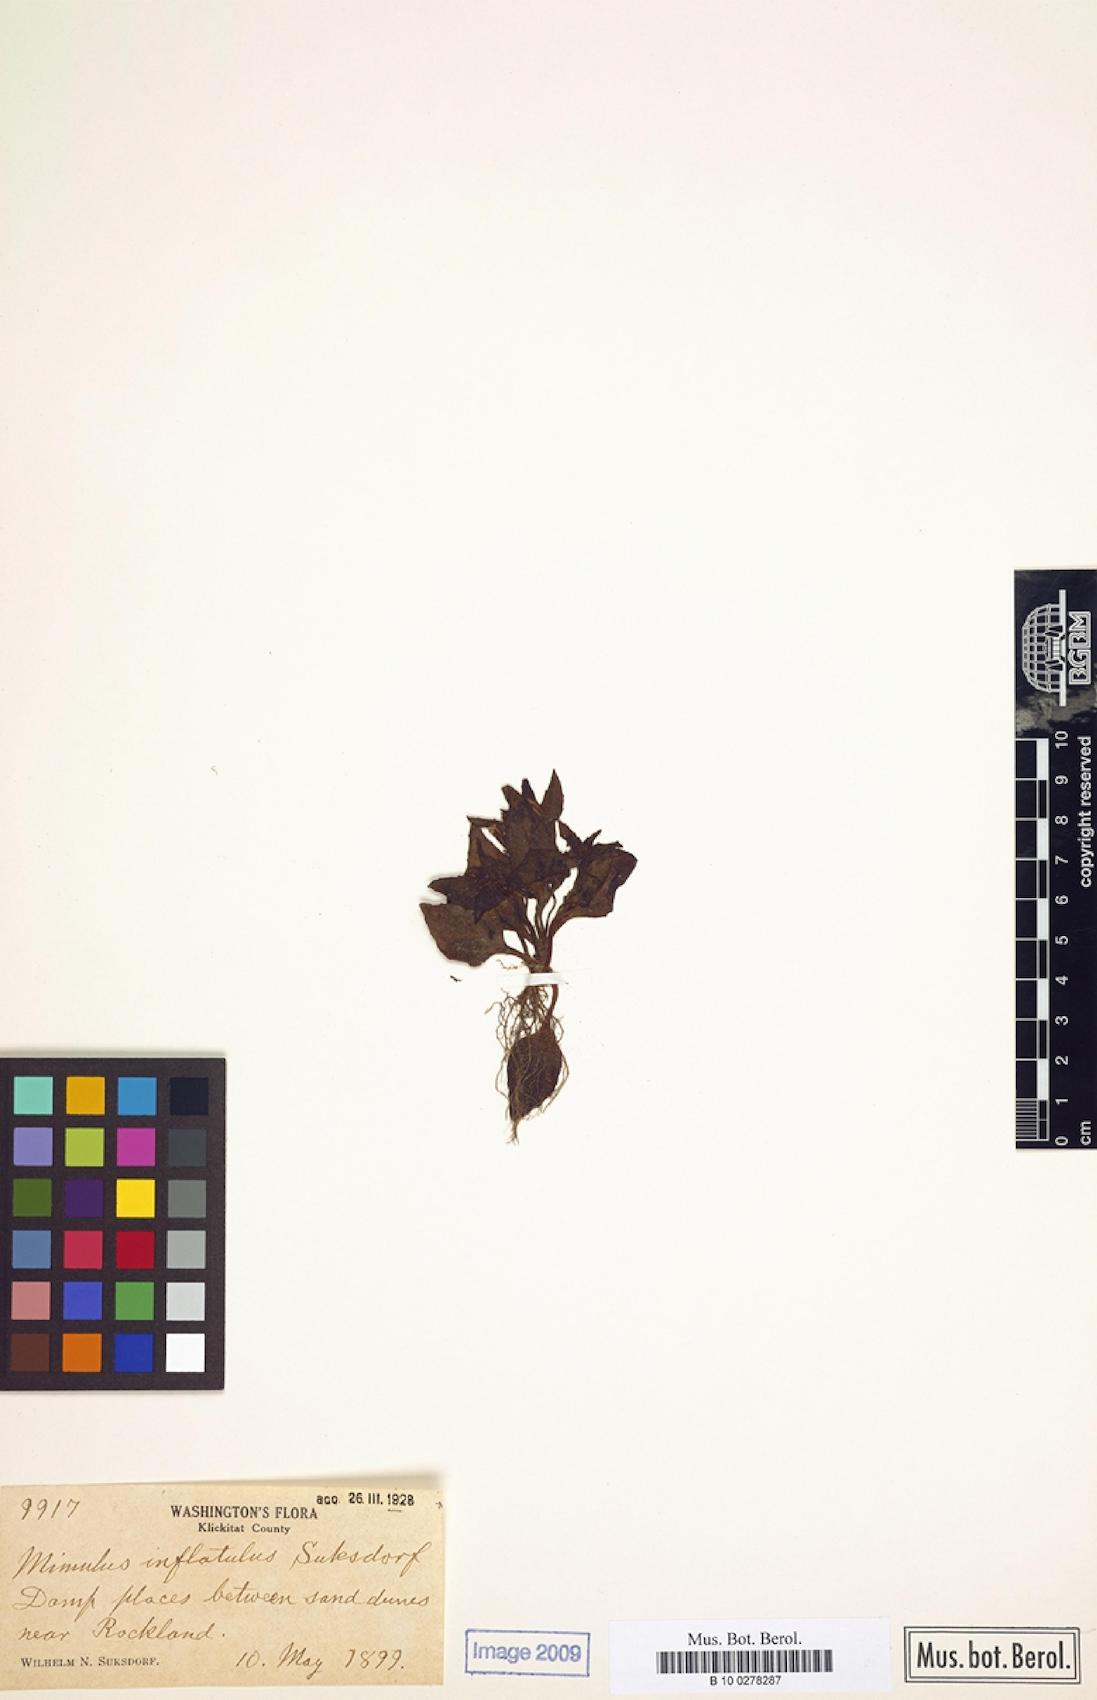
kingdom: Plantae
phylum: Tracheophyta
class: Magnoliopsida
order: Lamiales
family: Phrymaceae
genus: Erythranthe
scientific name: Erythranthe breviflora
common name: Short-flowered monkeyflower
